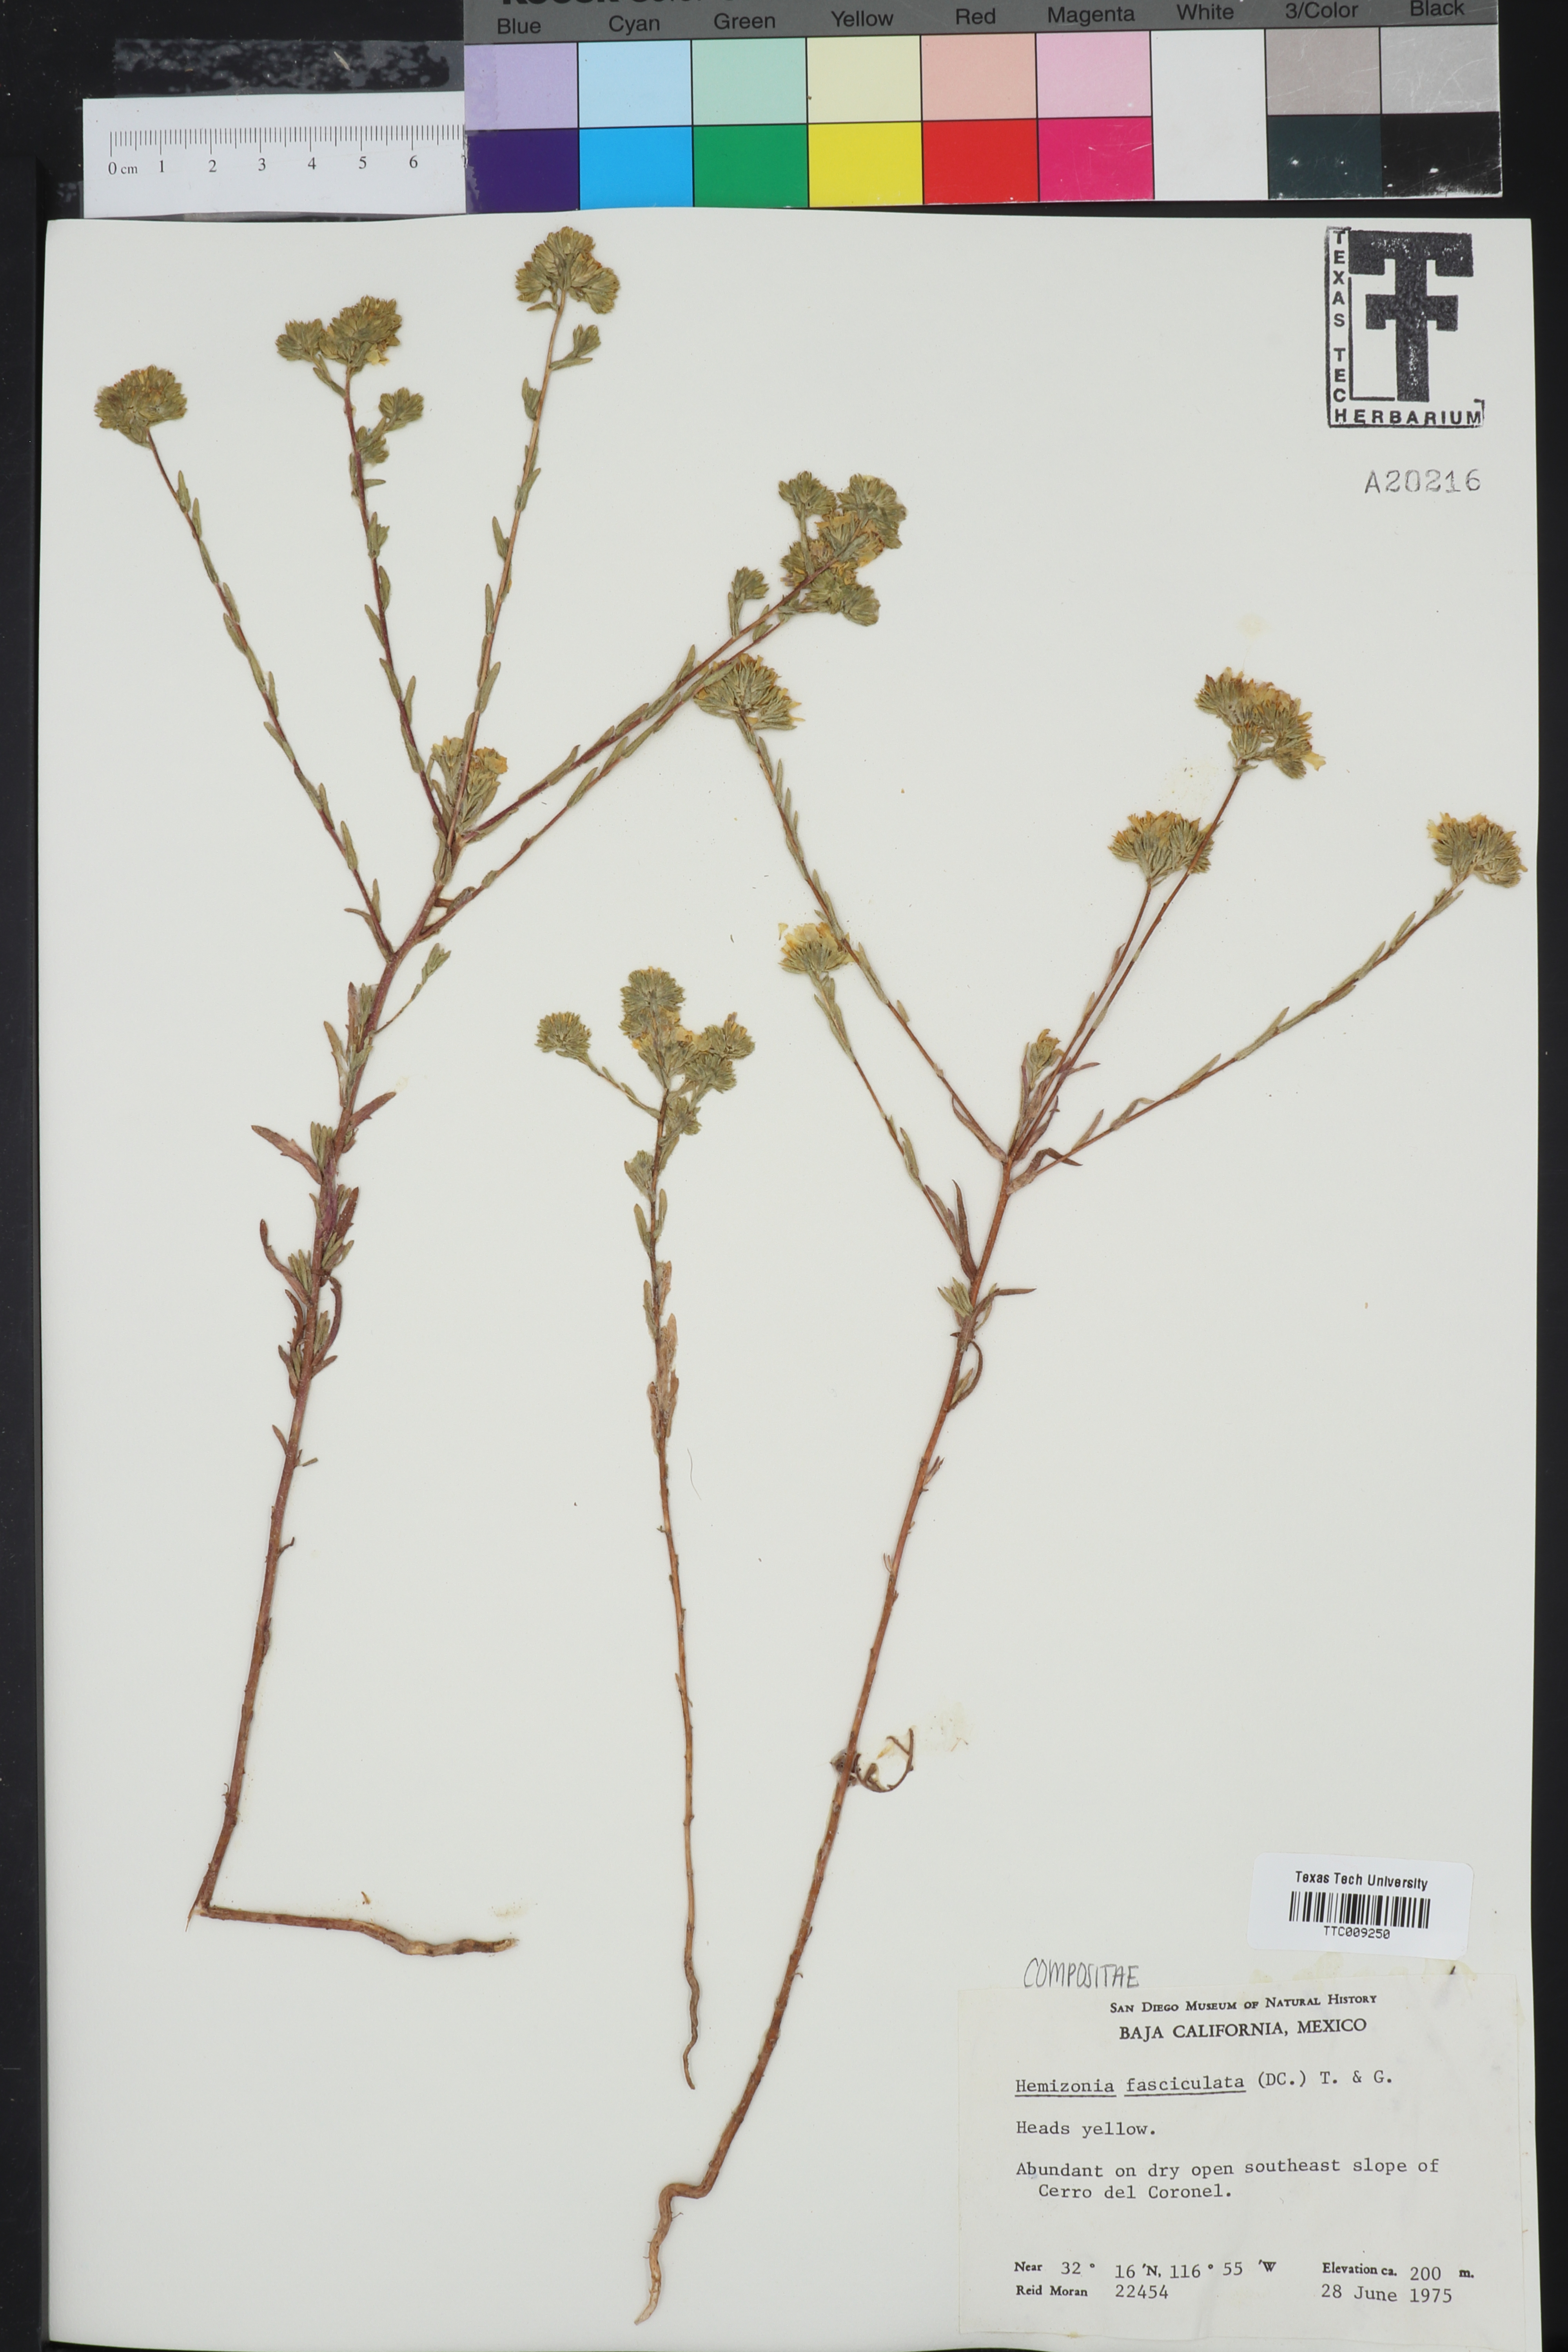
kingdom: Plantae
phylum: Tracheophyta
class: Magnoliopsida
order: Asterales
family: Asteraceae
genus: Deinandra
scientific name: Deinandra fasciculata
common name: Clustered tarweed
